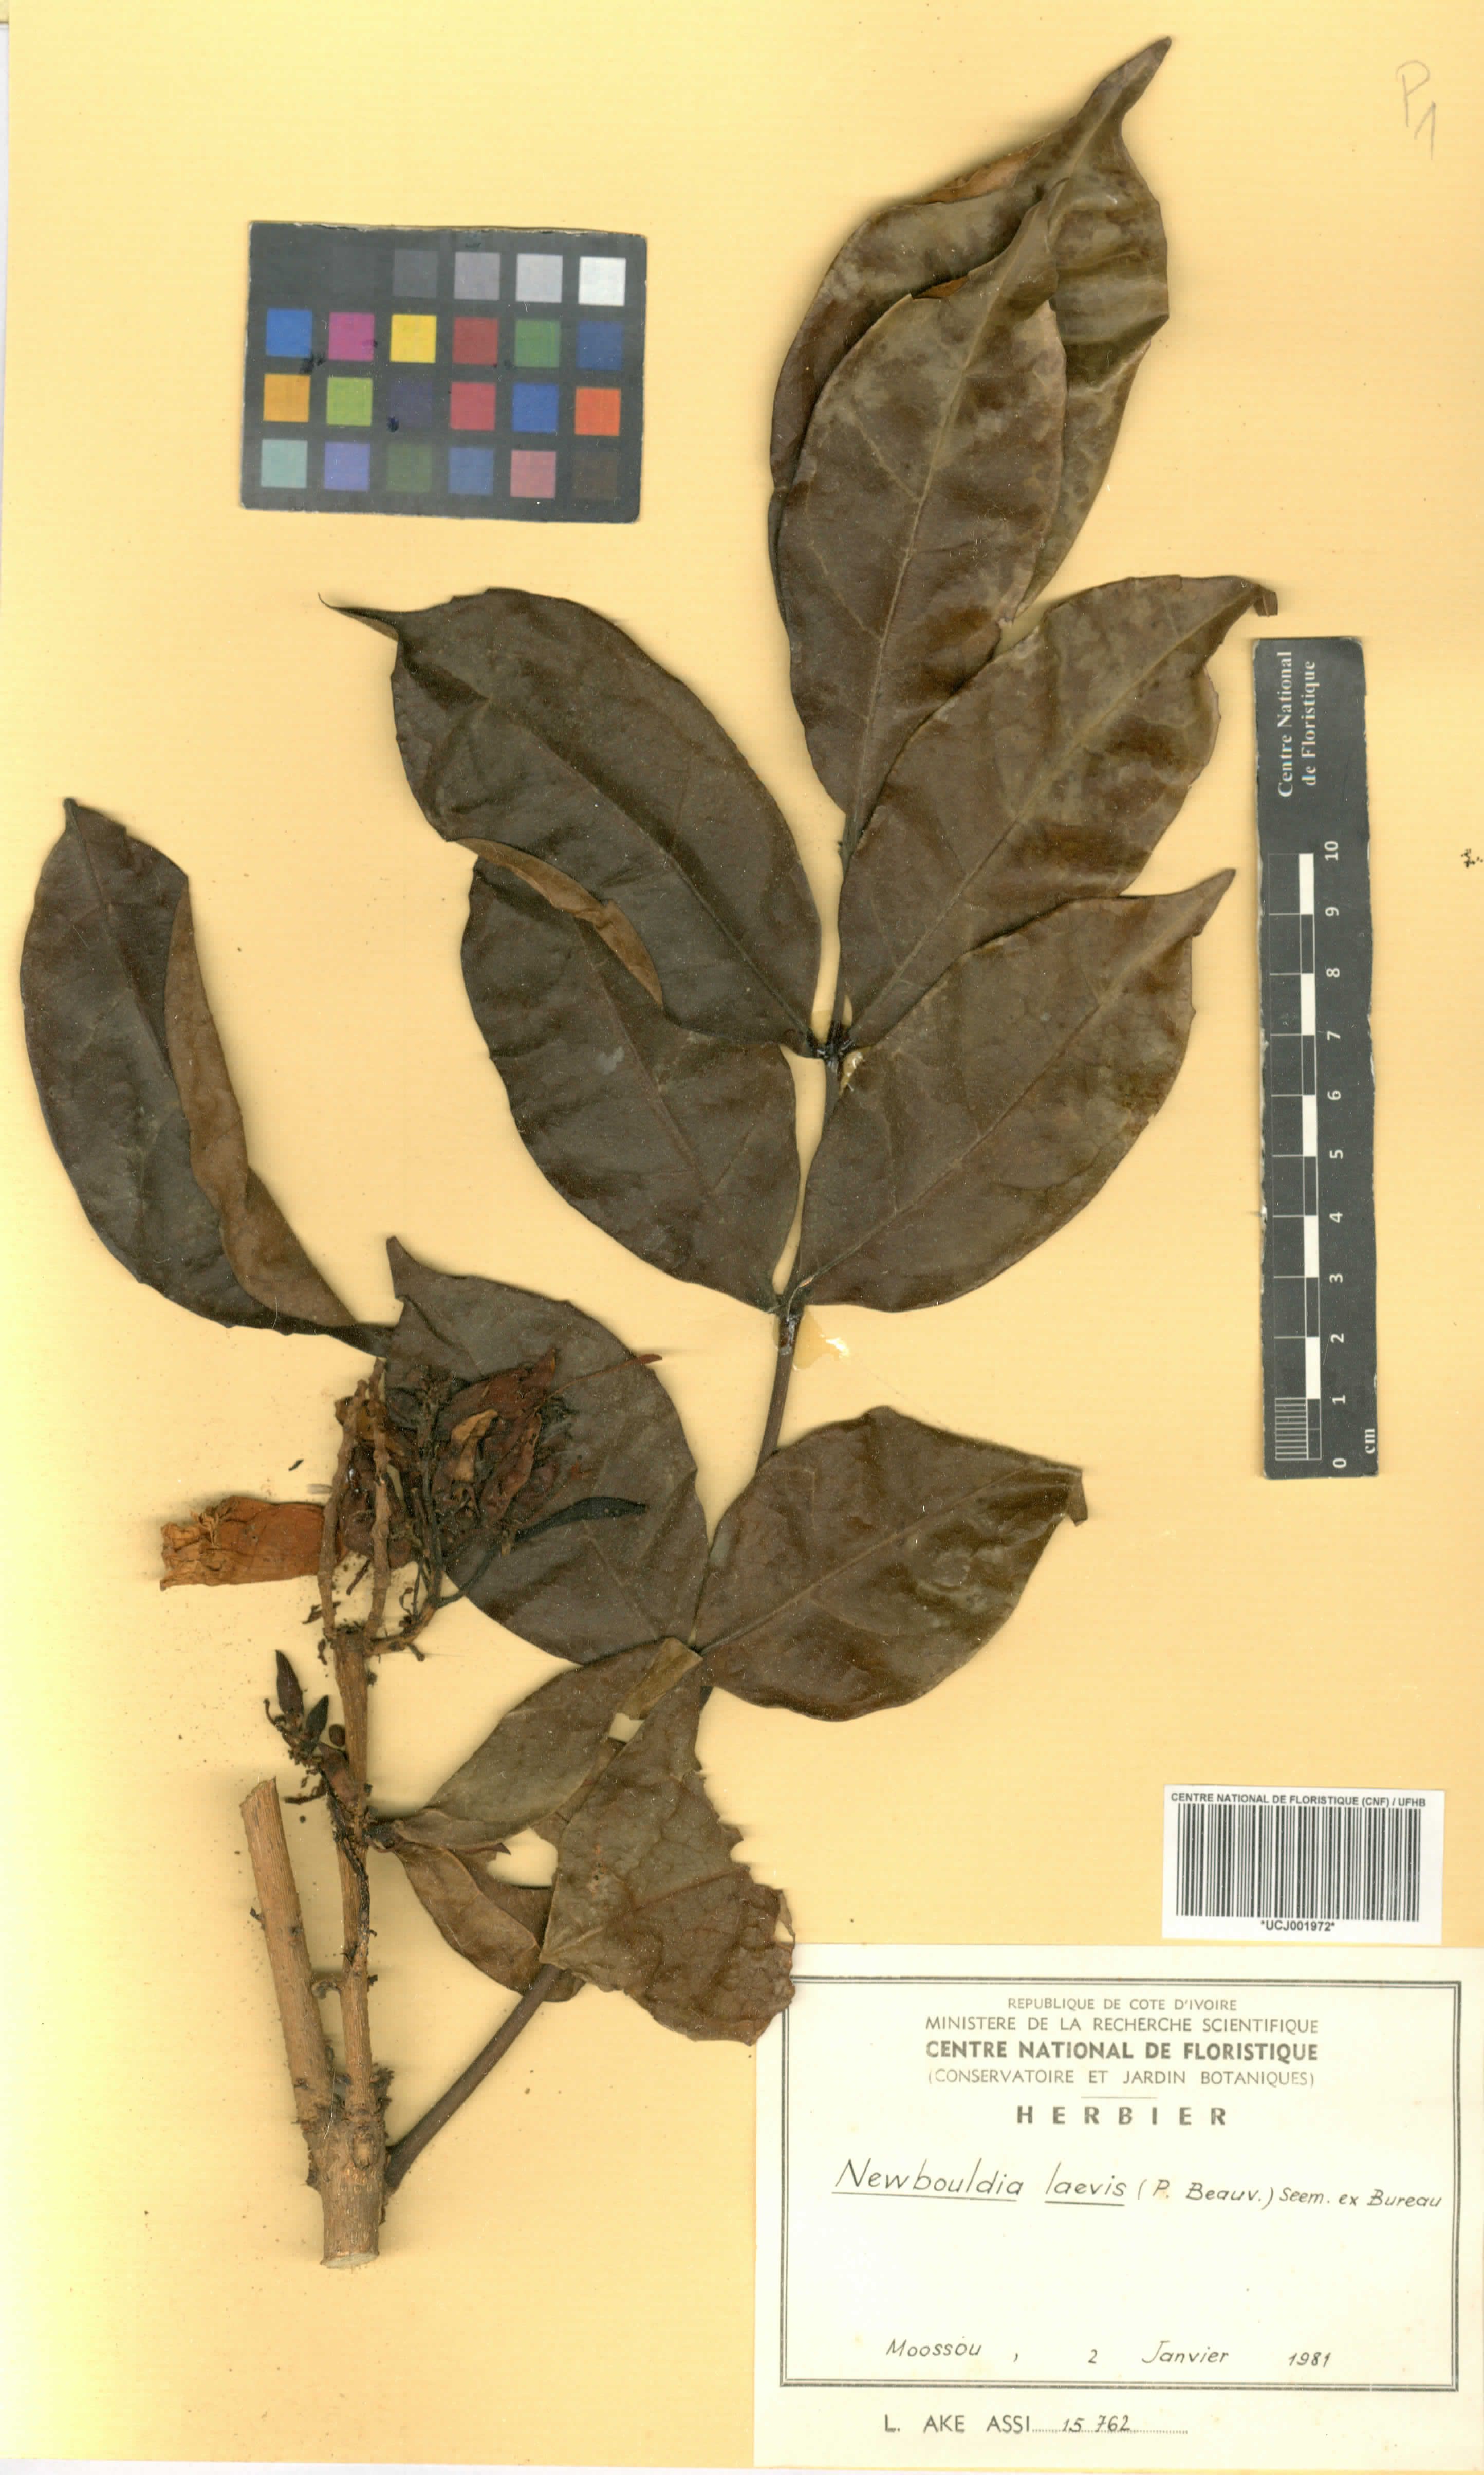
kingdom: Plantae
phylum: Tracheophyta
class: Magnoliopsida
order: Lamiales
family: Bignoniaceae
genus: Newbouldia
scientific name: Newbouldia laevis
